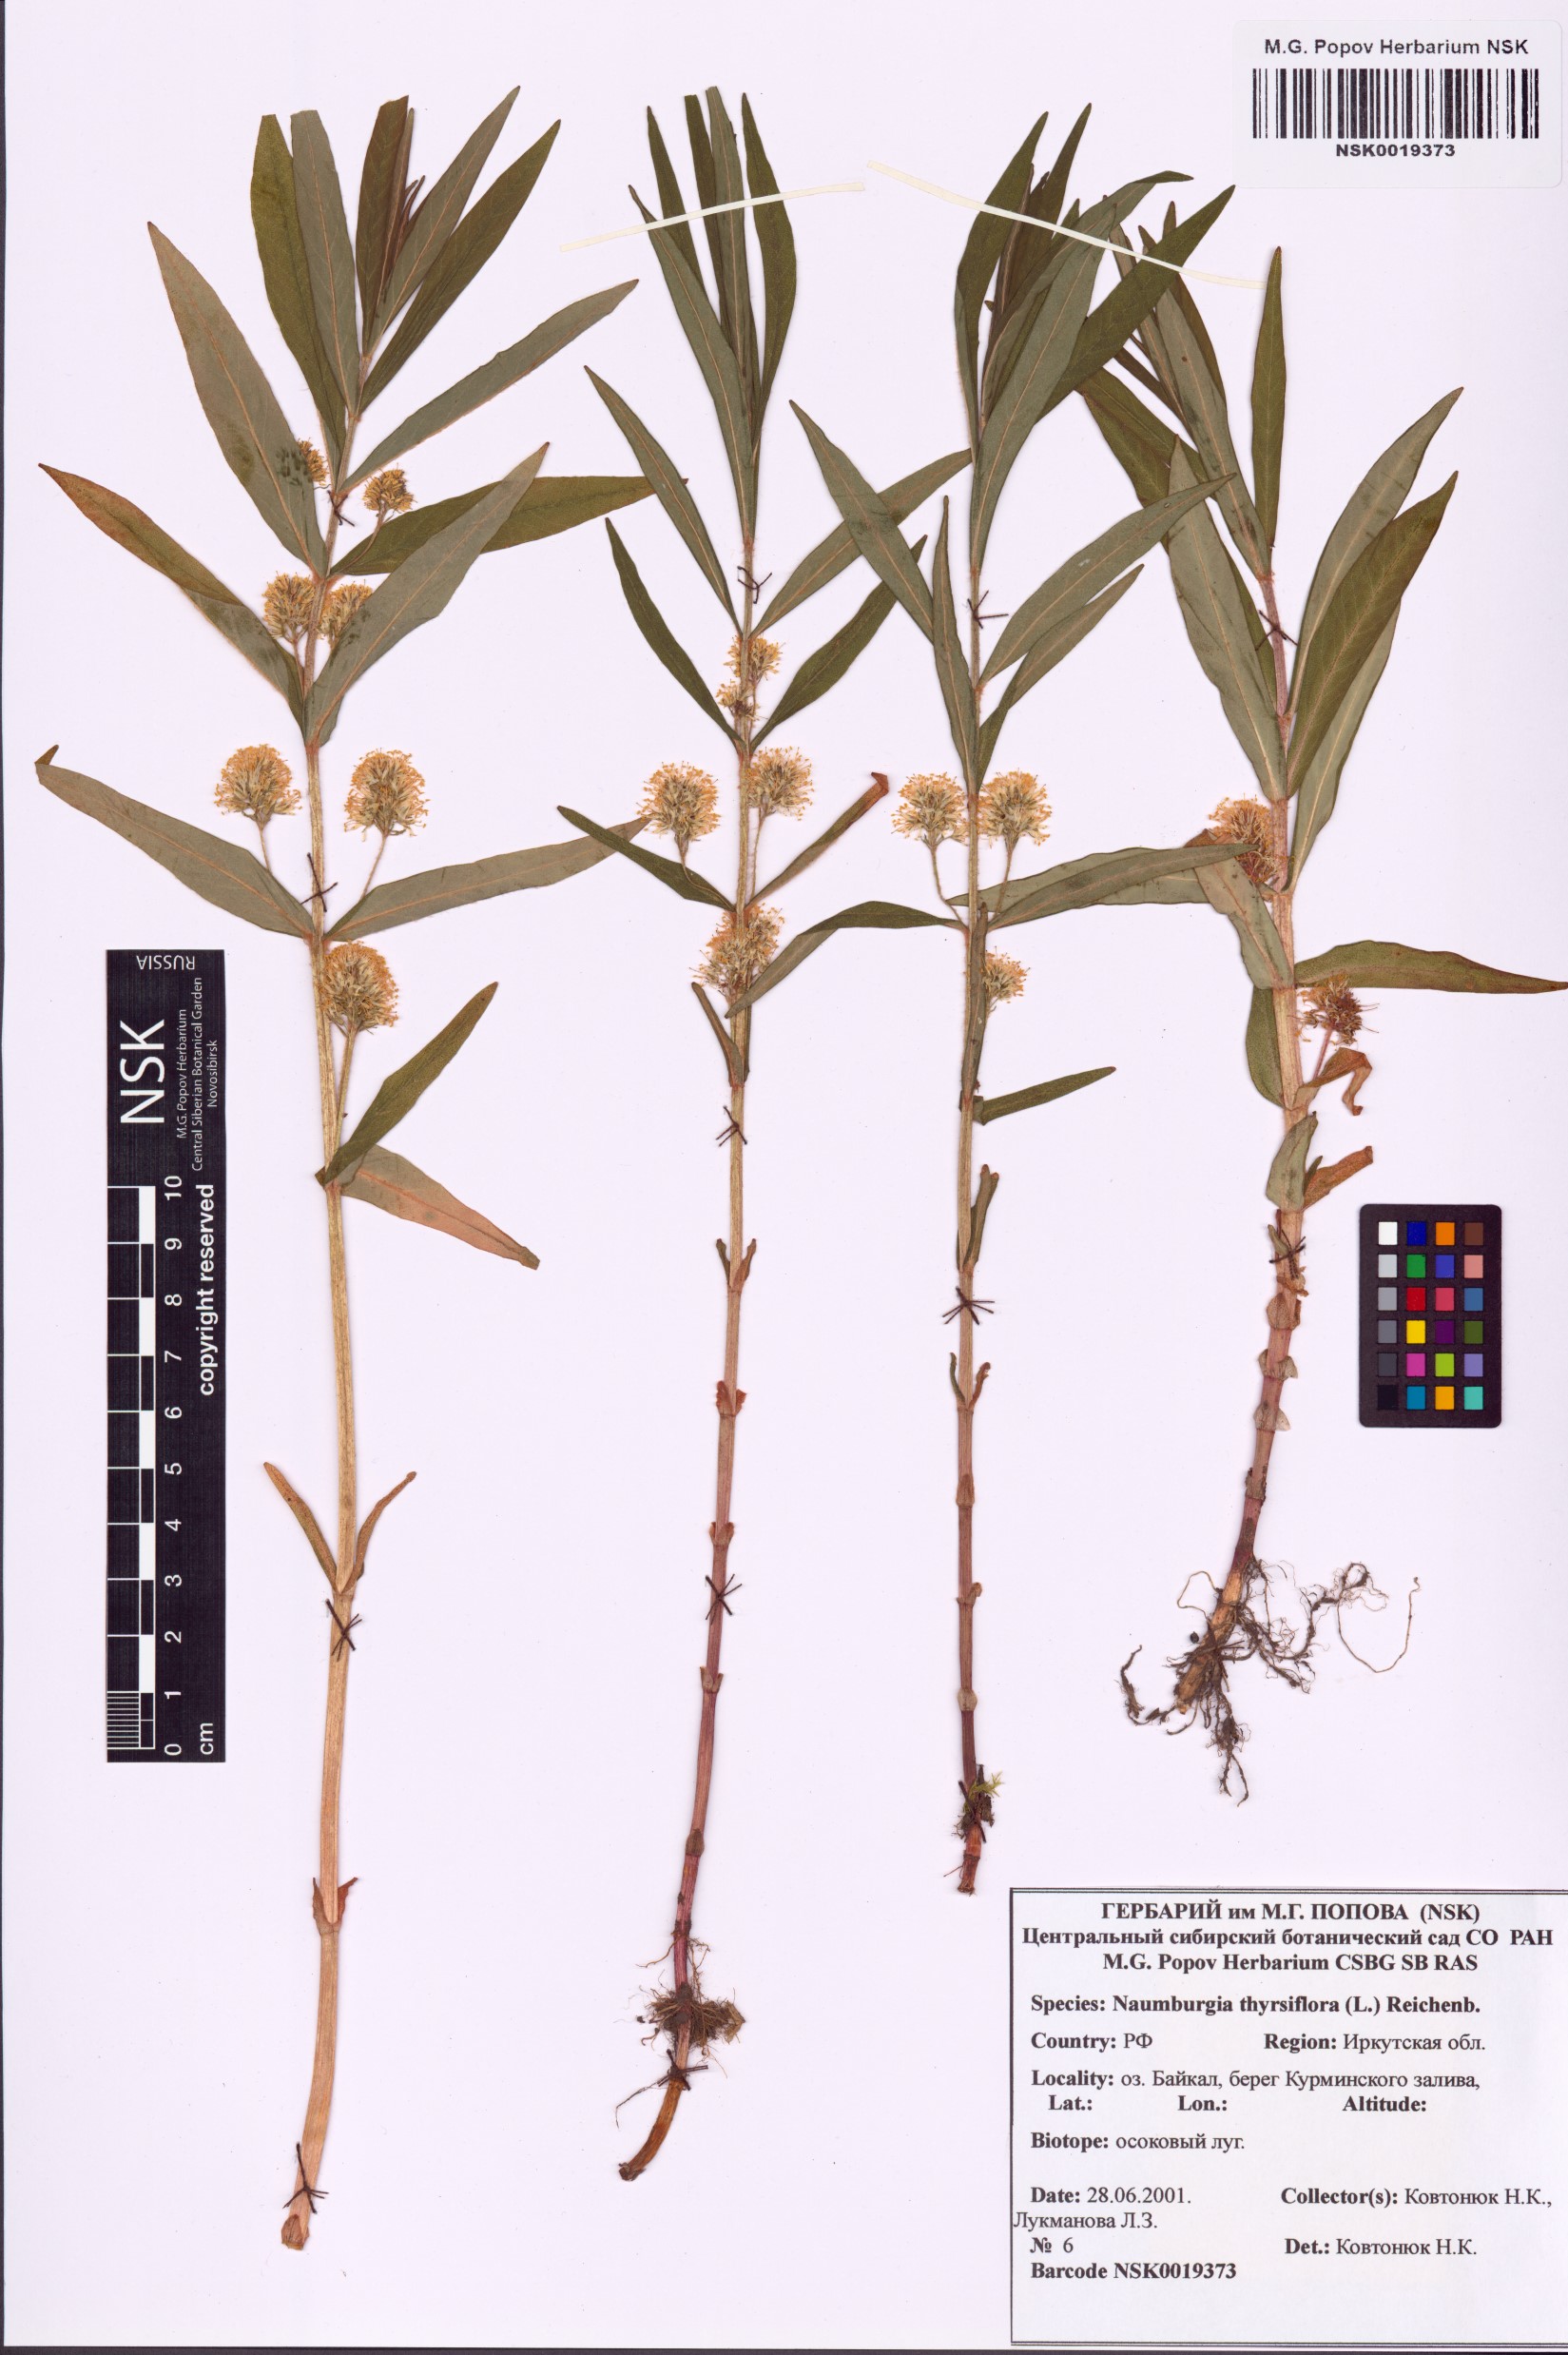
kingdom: Plantae
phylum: Tracheophyta
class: Magnoliopsida
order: Ericales
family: Primulaceae
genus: Lysimachia
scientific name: Lysimachia thyrsiflora
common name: Tufted loosestrife
